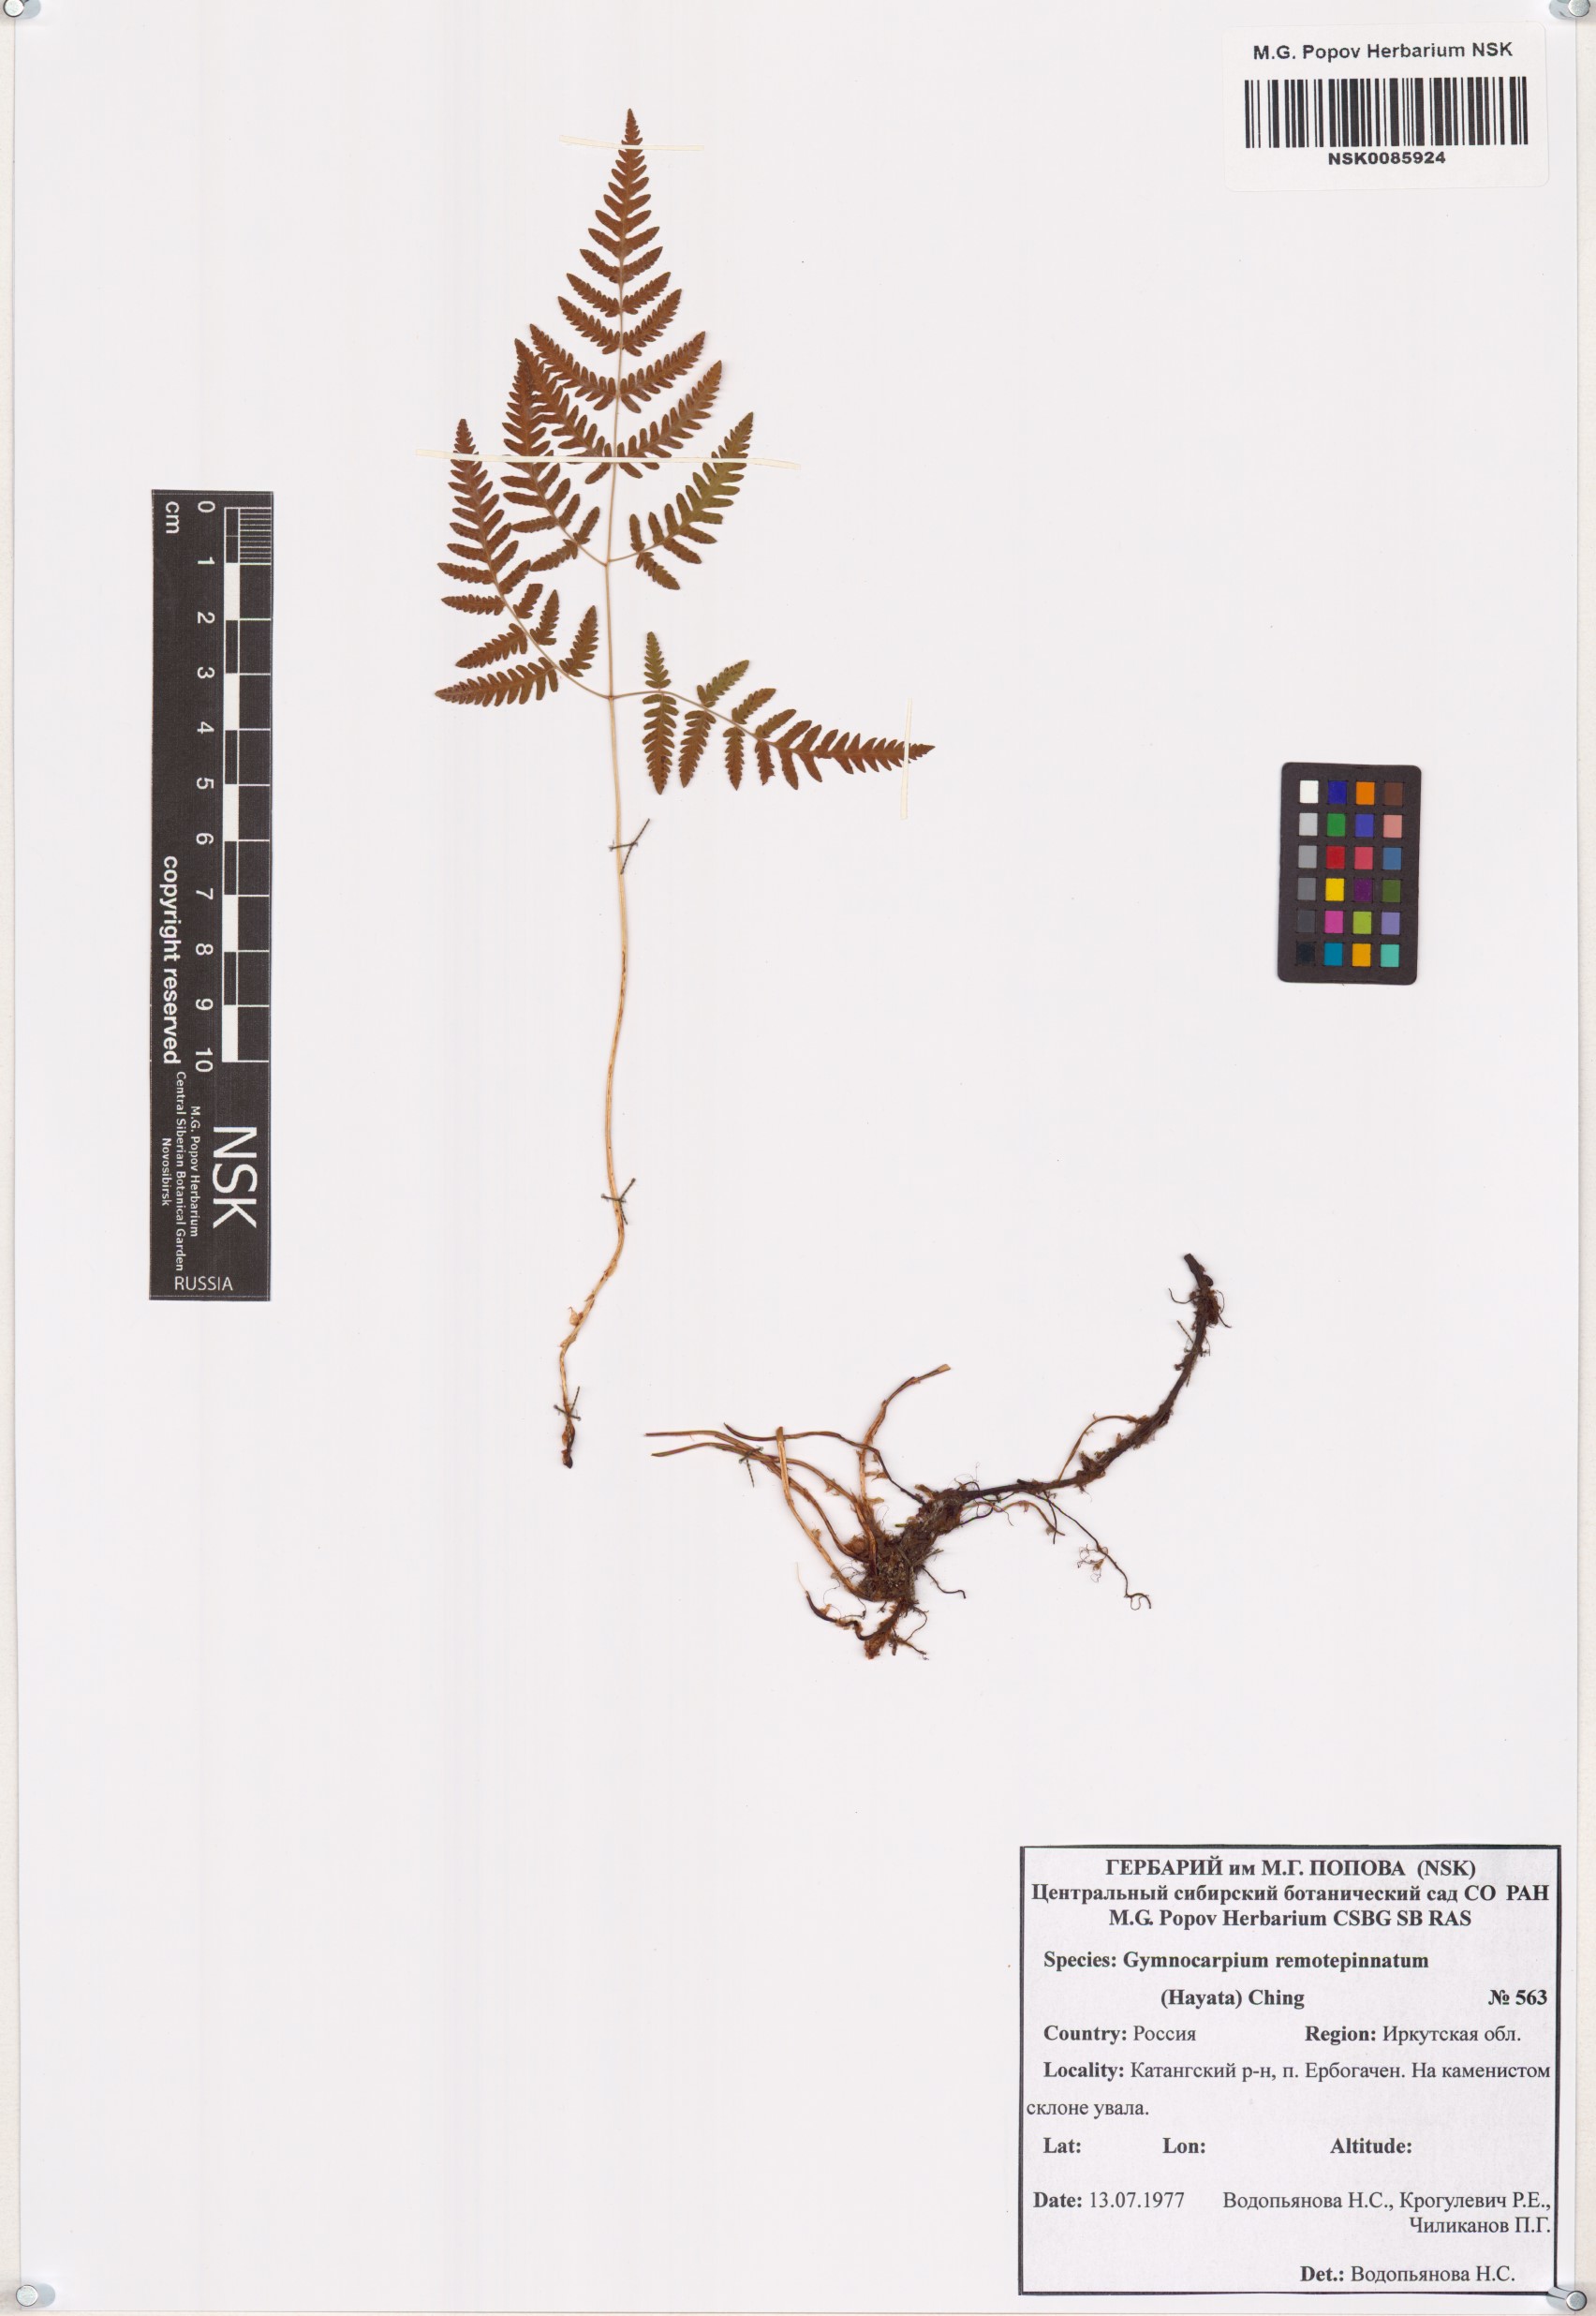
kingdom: Plantae
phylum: Tracheophyta
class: Polypodiopsida
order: Polypodiales
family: Cystopteridaceae
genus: Gymnocarpium
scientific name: Gymnocarpium remotepinnatum
